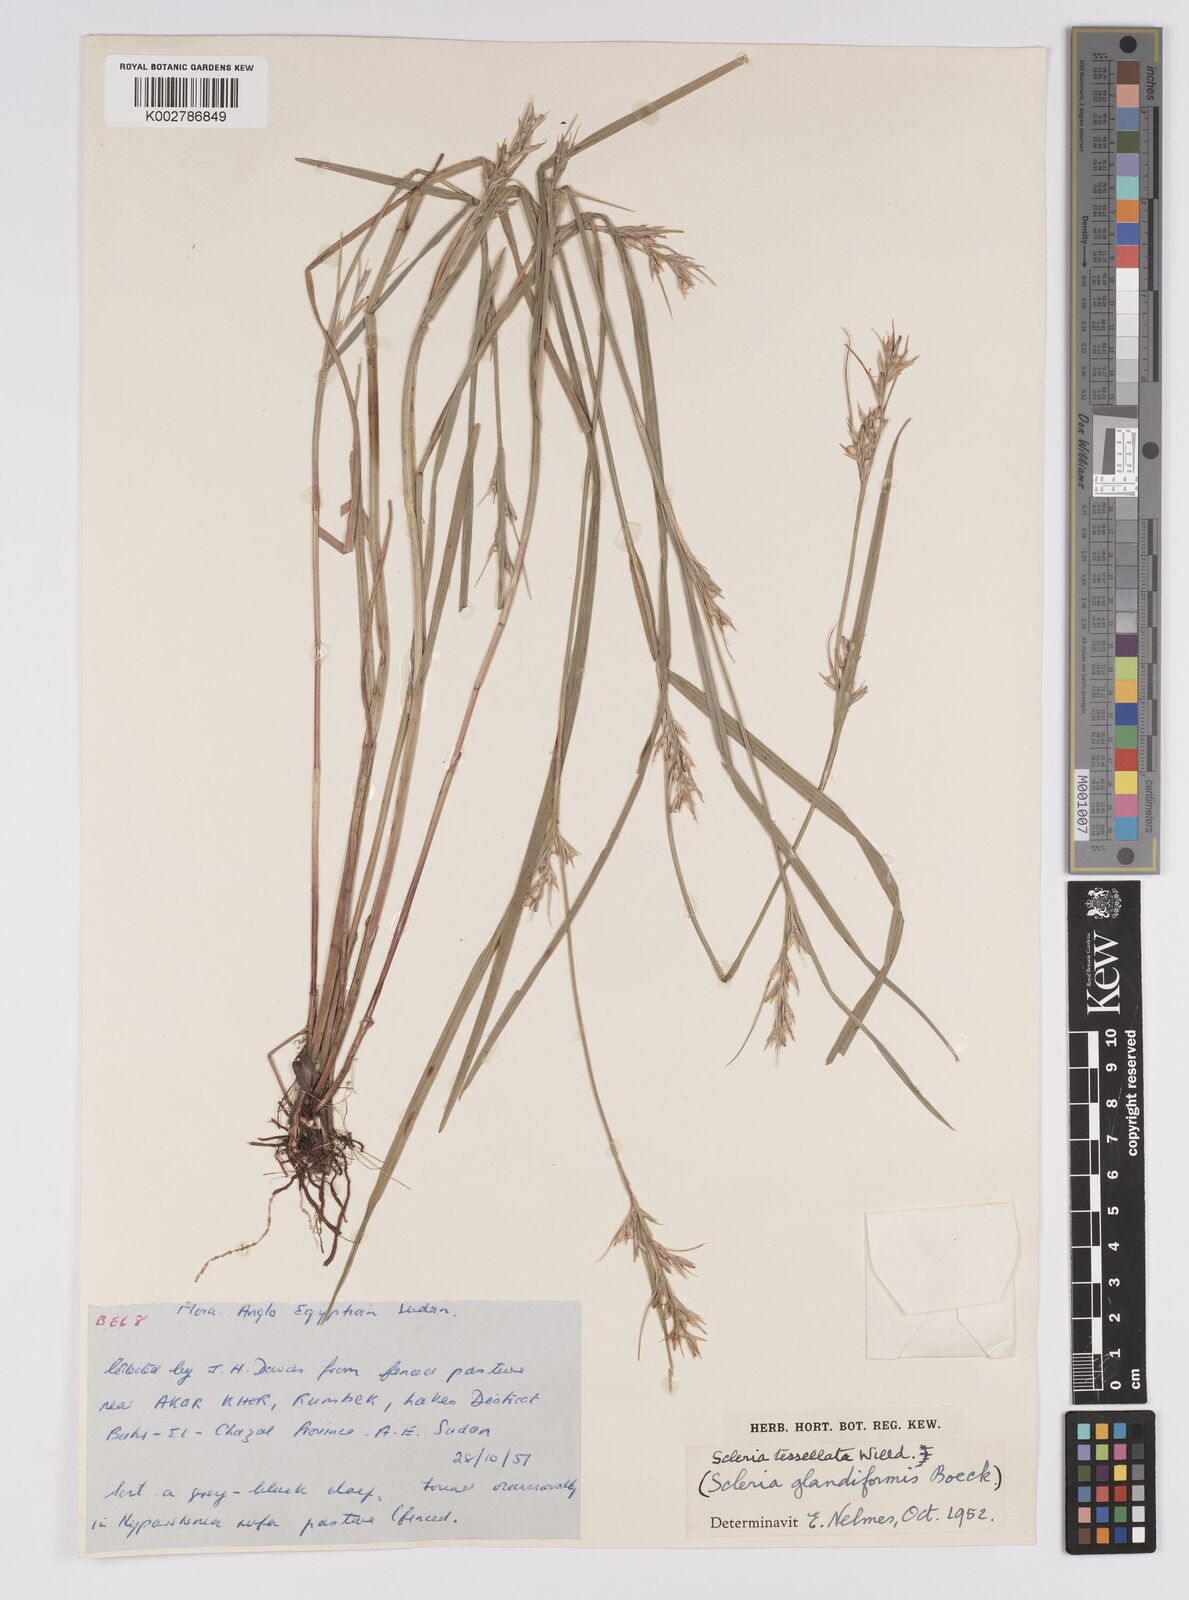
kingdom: Plantae
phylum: Tracheophyta
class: Liliopsida
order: Poales
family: Cyperaceae
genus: Scleria
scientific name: Scleria tessellata
